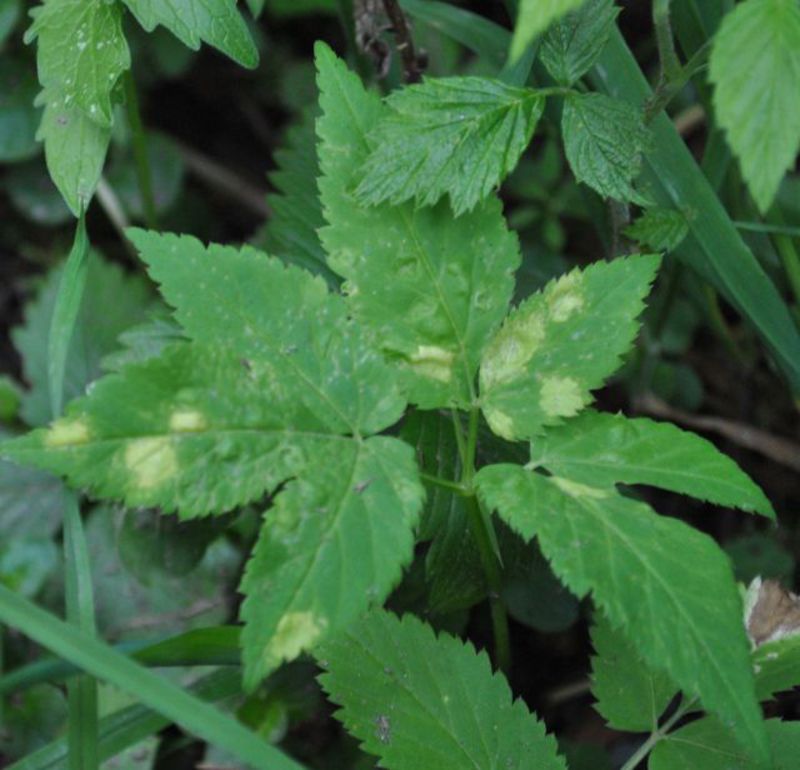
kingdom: Chromista
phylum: Oomycota
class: Peronosporea
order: Peronosporales
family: Peronosporaceae
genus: Peronospora
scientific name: Peronospora crustosa
